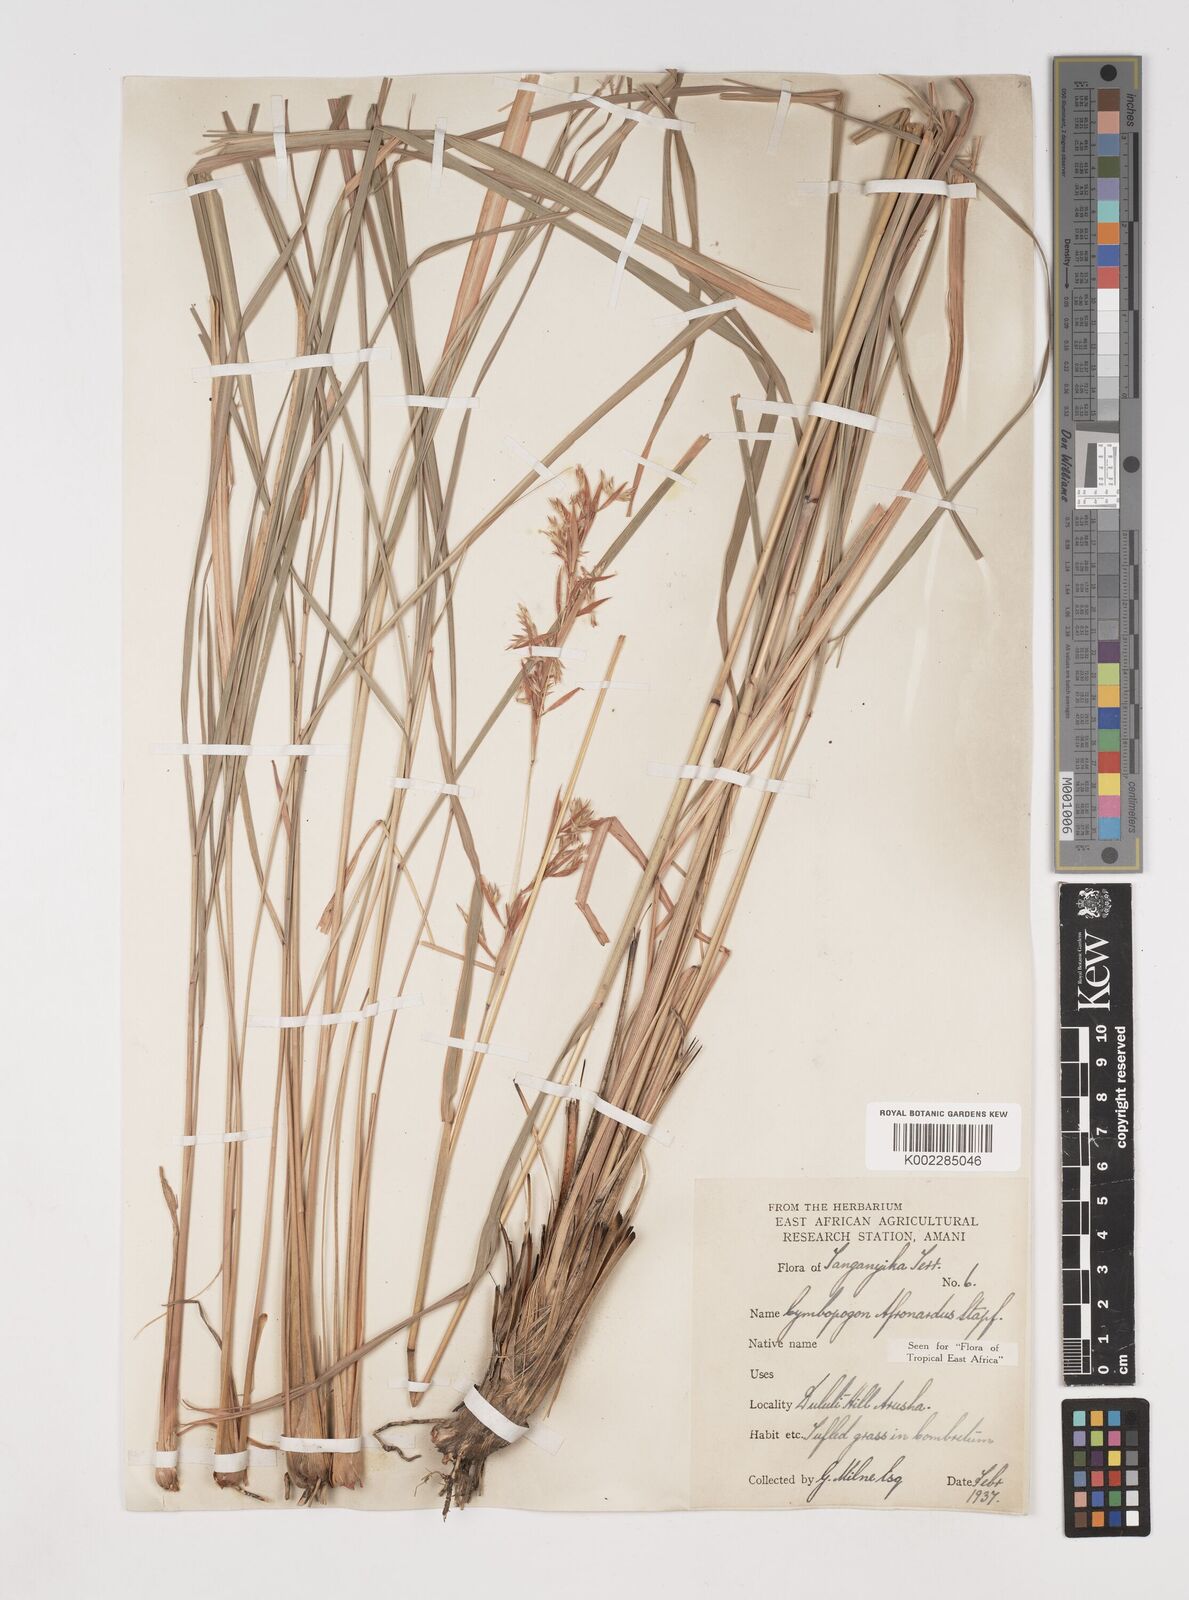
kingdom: Plantae
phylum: Tracheophyta
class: Liliopsida
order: Poales
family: Poaceae
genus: Cymbopogon
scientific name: Cymbopogon nardus
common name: Giant turpentine grass
